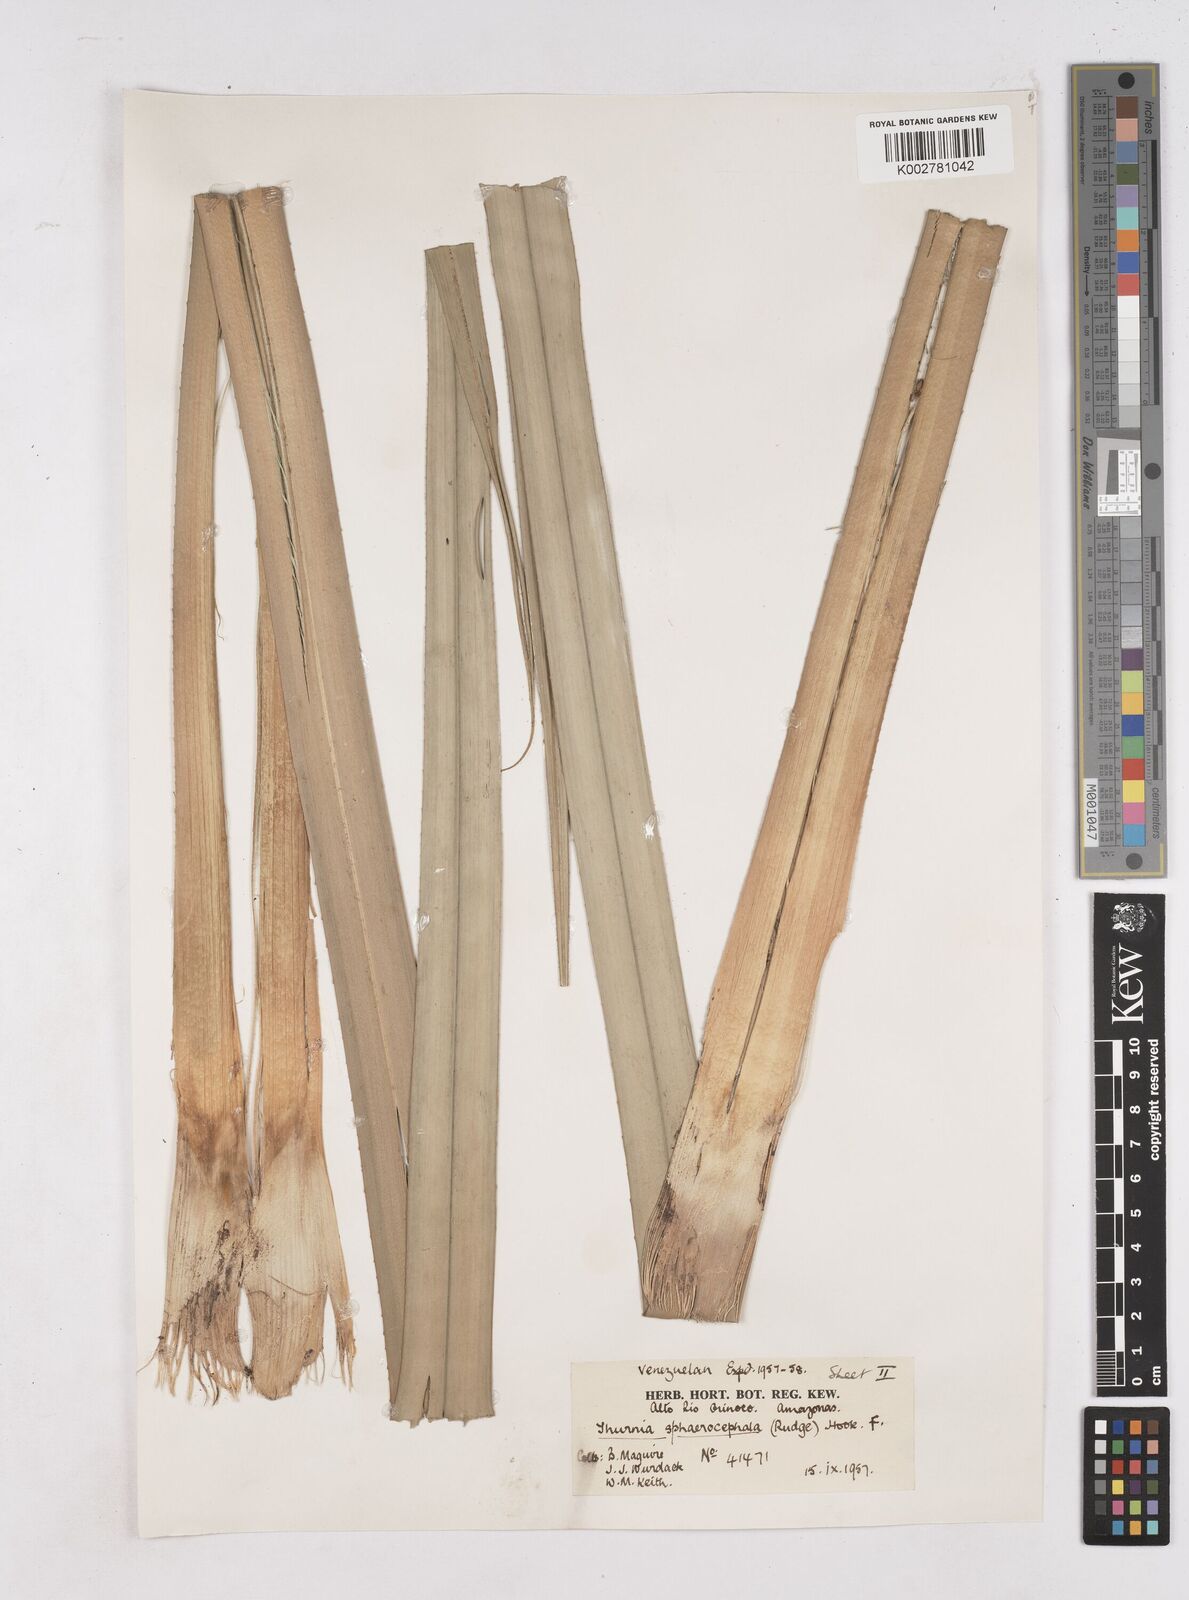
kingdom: Plantae
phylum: Tracheophyta
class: Liliopsida
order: Poales
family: Thurniaceae
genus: Thurnia
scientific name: Thurnia sphaerocephala
